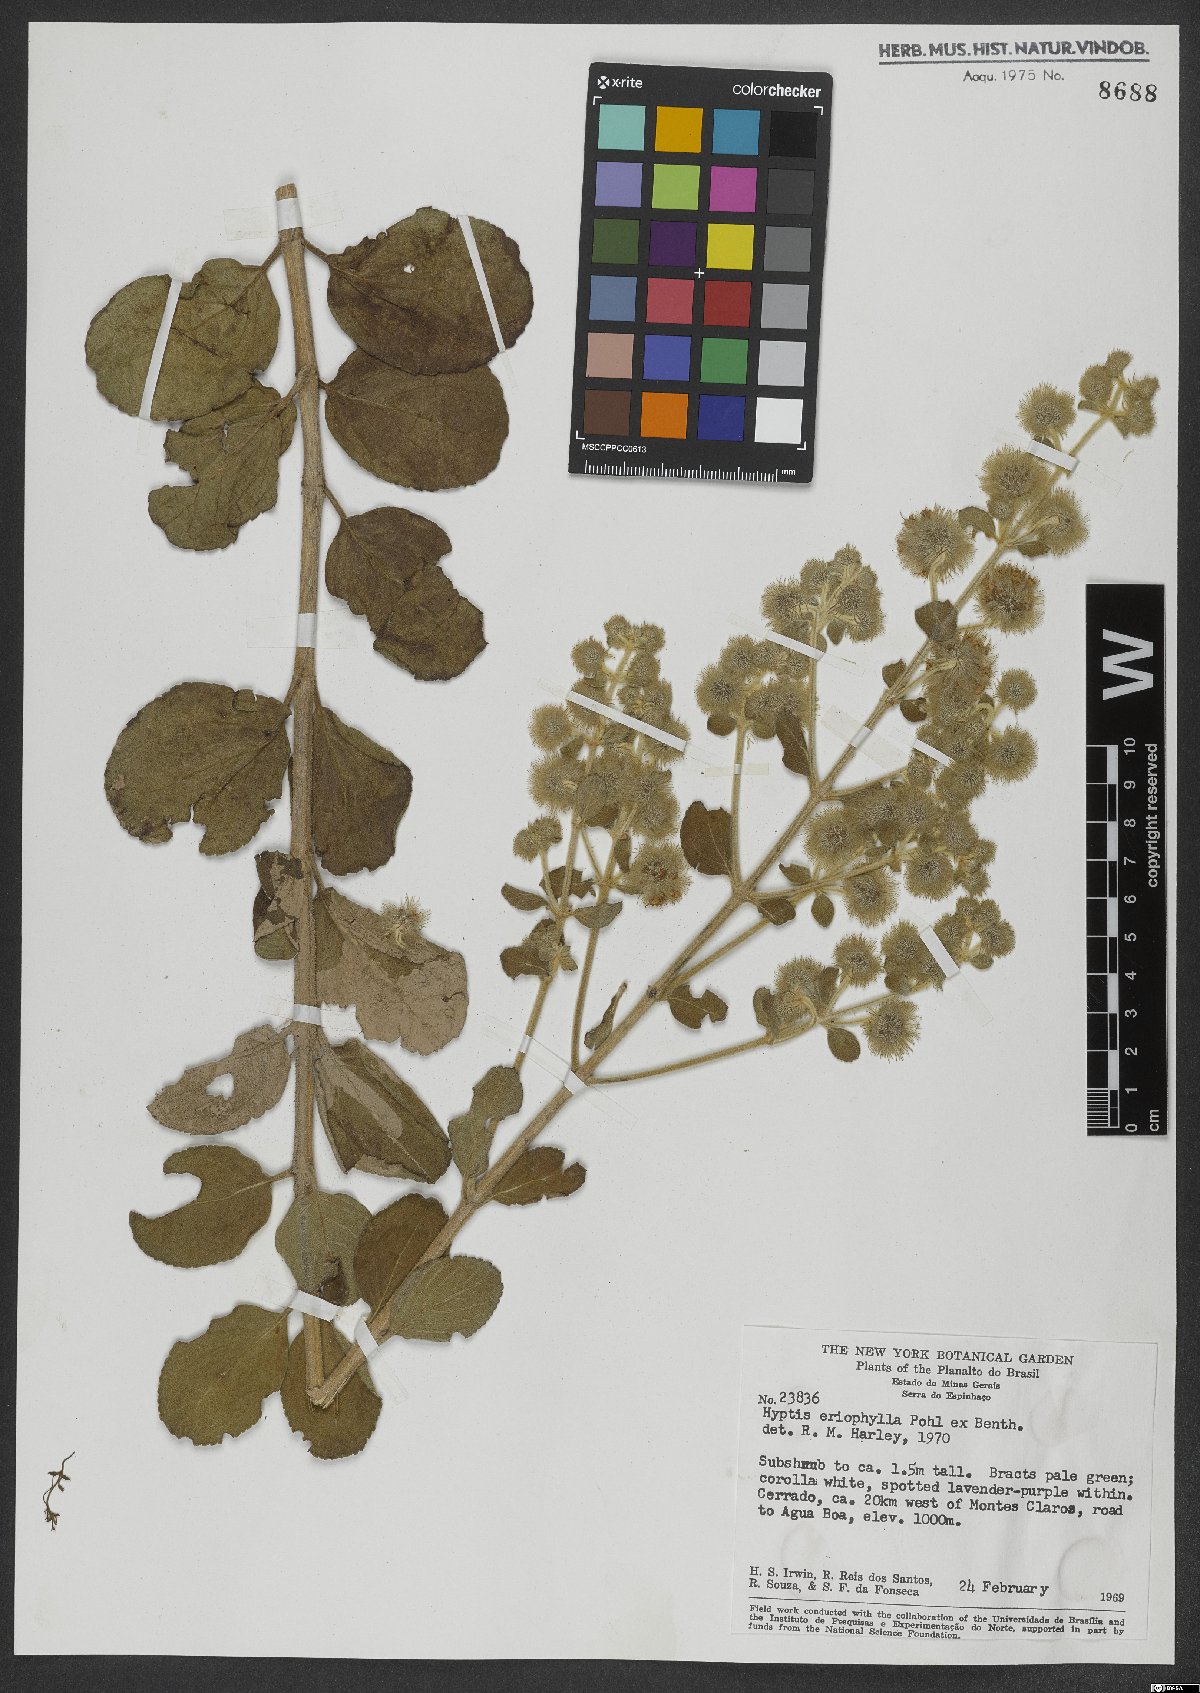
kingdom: Plantae
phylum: Tracheophyta
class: Magnoliopsida
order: Lamiales
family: Lamiaceae
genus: Medusantha
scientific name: Medusantha eriophylla
